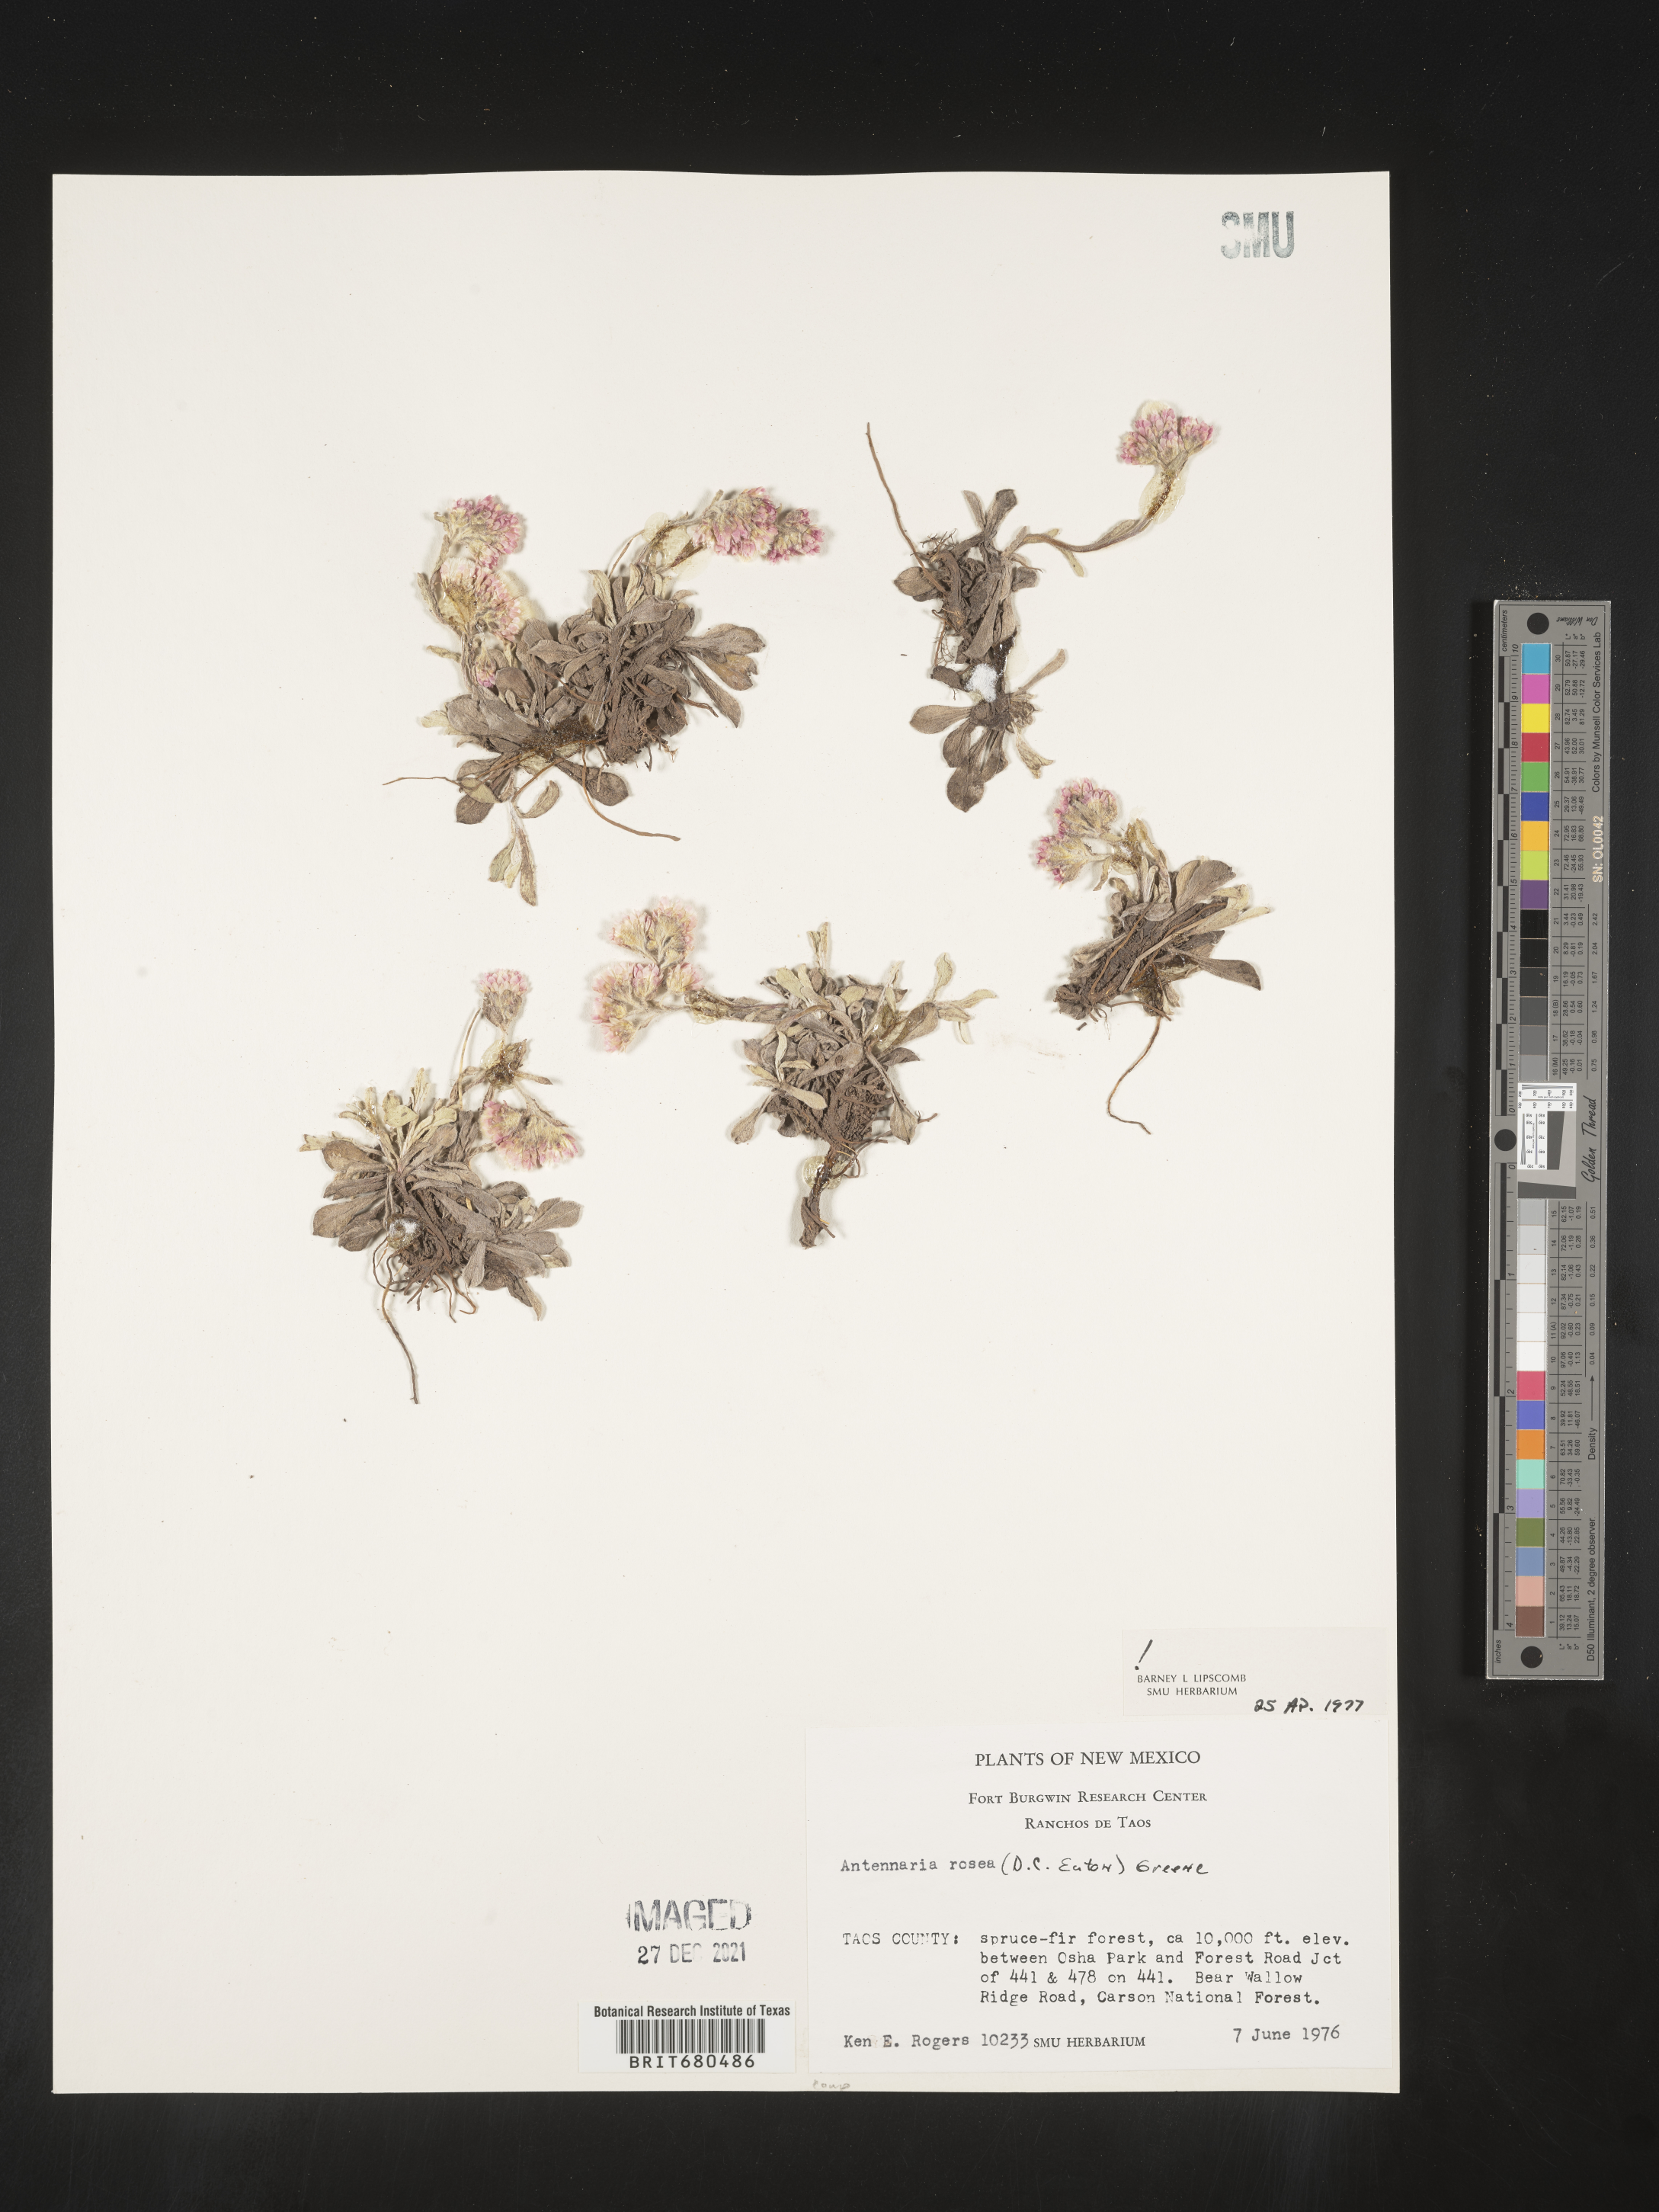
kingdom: Plantae
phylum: Tracheophyta
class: Magnoliopsida
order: Asterales
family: Asteraceae
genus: Antennaria
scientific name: Antennaria rosea
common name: Rosy pussytoes
